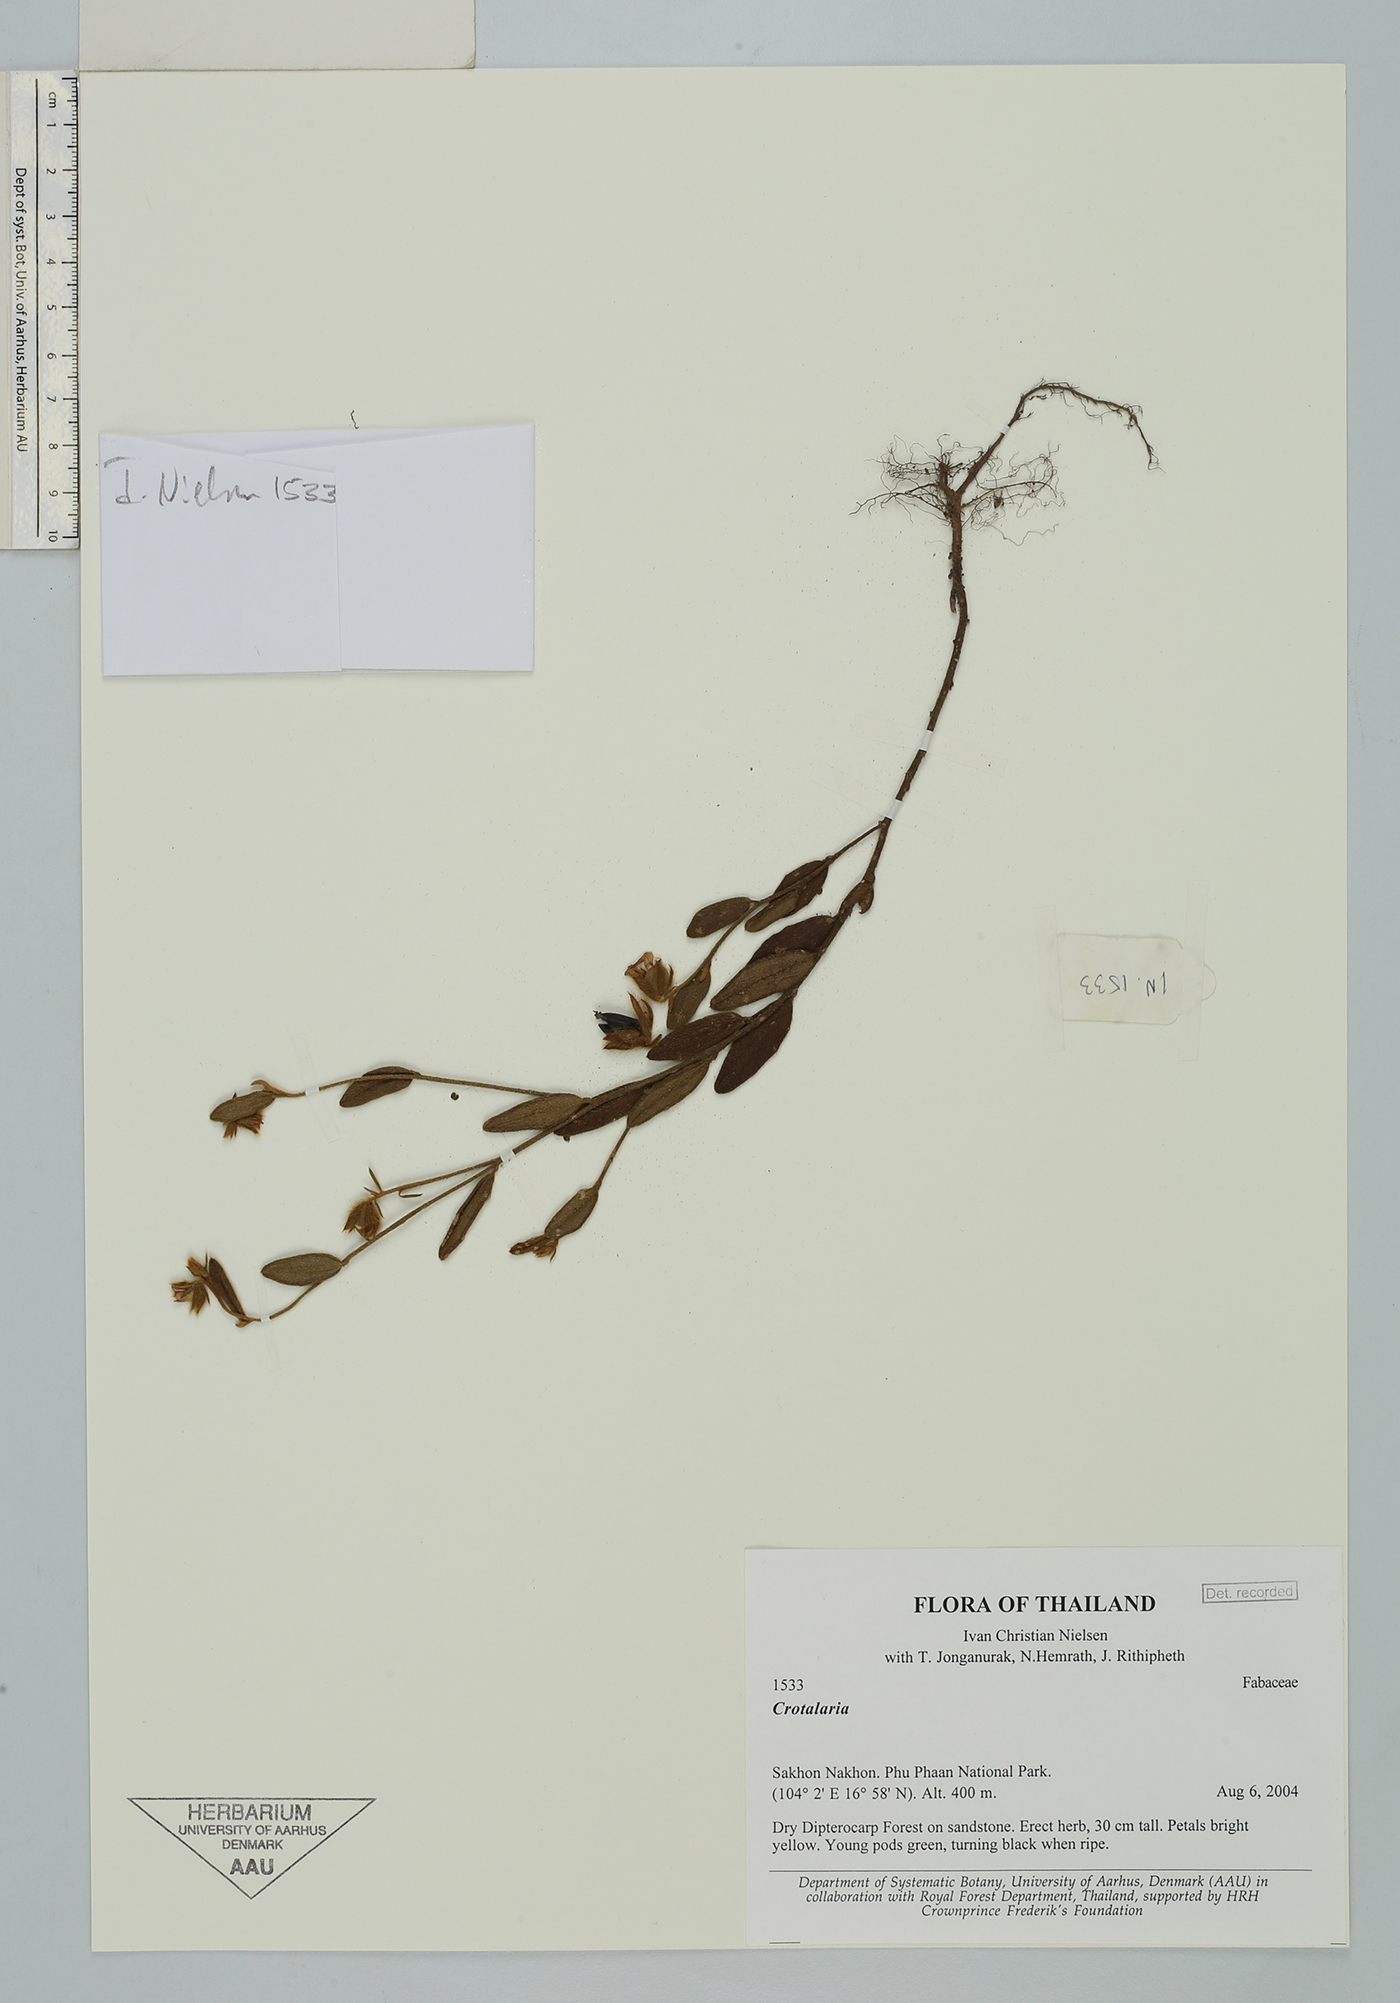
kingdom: Plantae
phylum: Tracheophyta
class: Magnoliopsida
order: Fabales
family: Fabaceae
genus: Crotalaria
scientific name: Crotalaria chinensis
